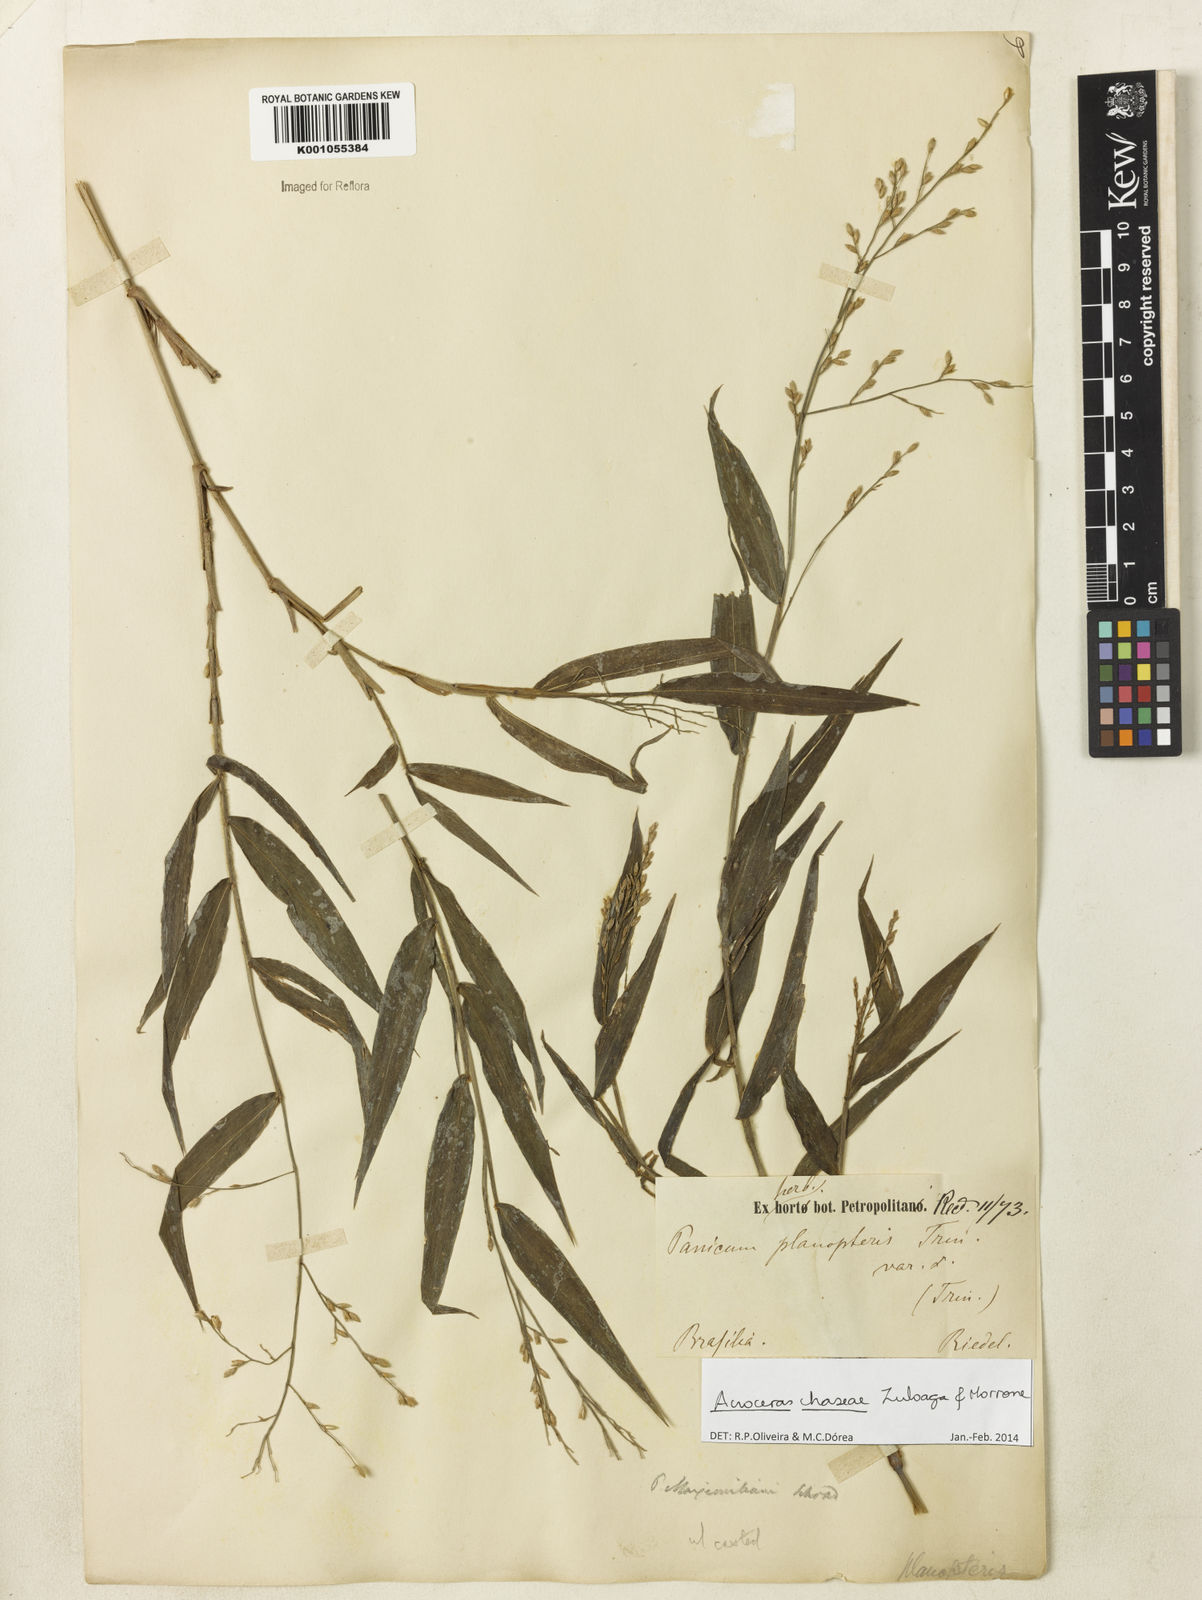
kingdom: Plantae
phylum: Tracheophyta
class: Liliopsida
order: Poales
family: Poaceae
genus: Acroceras
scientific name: Acroceras chaseae
